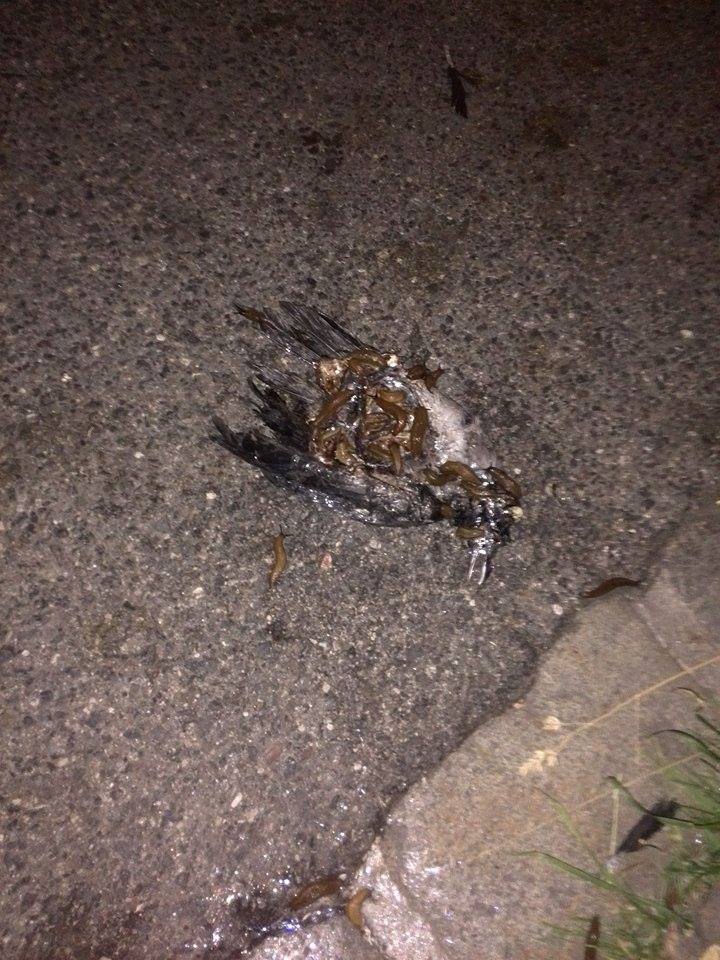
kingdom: Animalia
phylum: Chordata
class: Aves
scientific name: Aves
